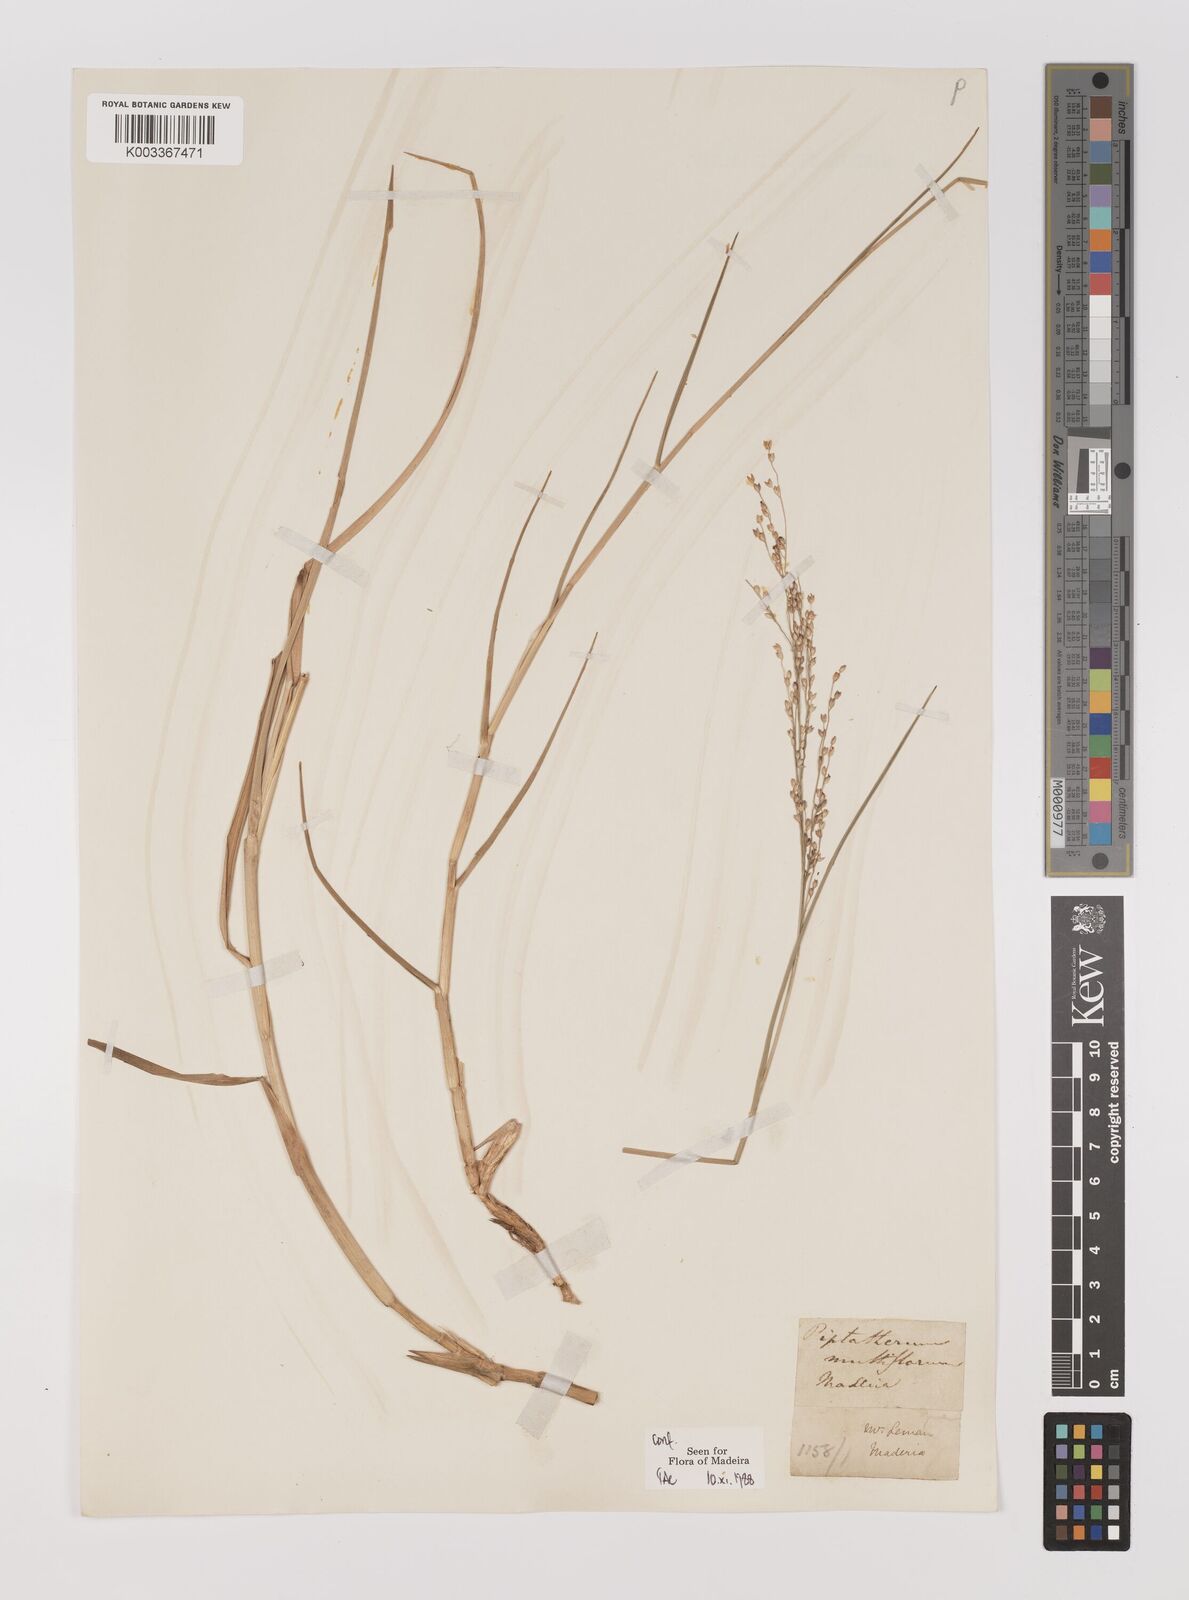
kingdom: Plantae
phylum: Tracheophyta
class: Liliopsida
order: Poales
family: Poaceae
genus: Panicum
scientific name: Panicum repens
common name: Torpedo grass
